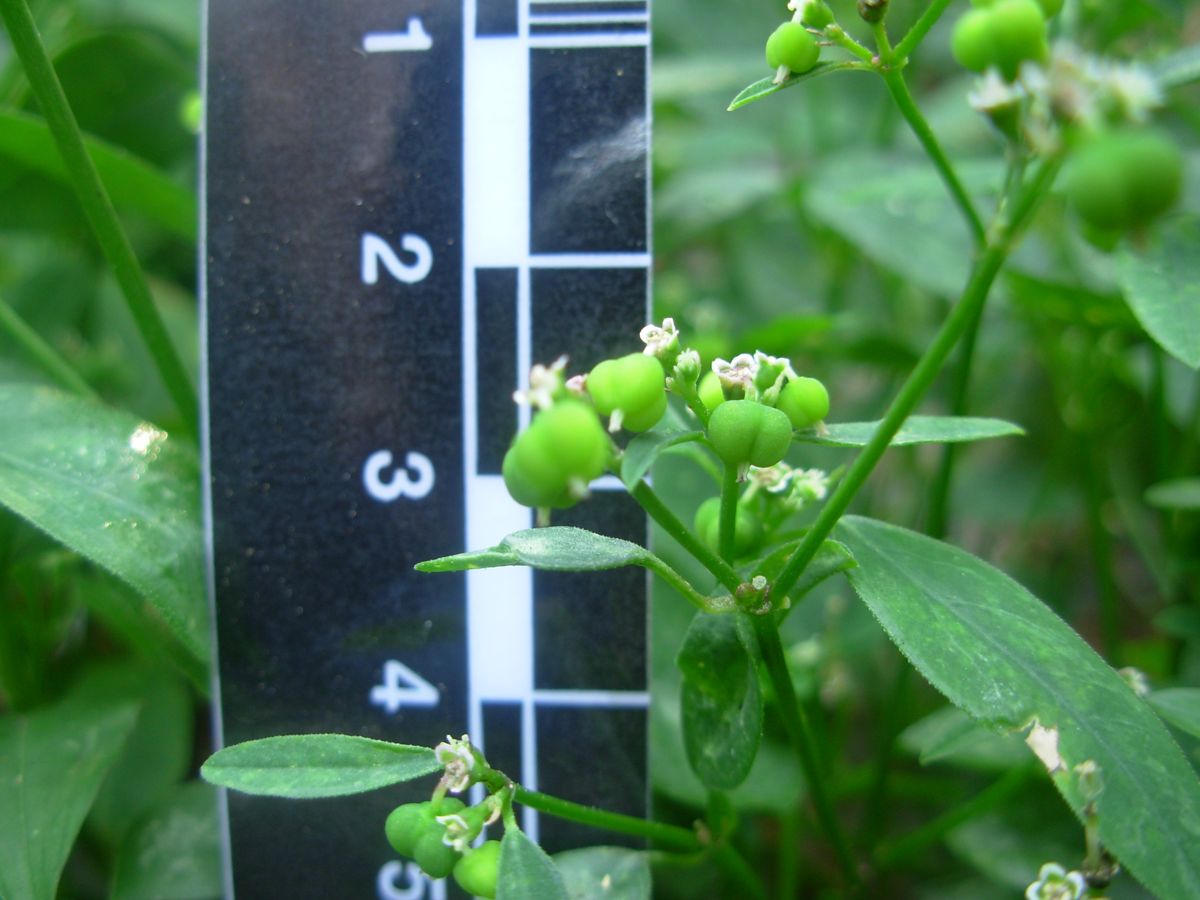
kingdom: Plantae
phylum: Tracheophyta
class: Magnoliopsida
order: Malpighiales
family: Euphorbiaceae
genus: Euphorbia
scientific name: Euphorbia graminea
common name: Grassleaf spurge
